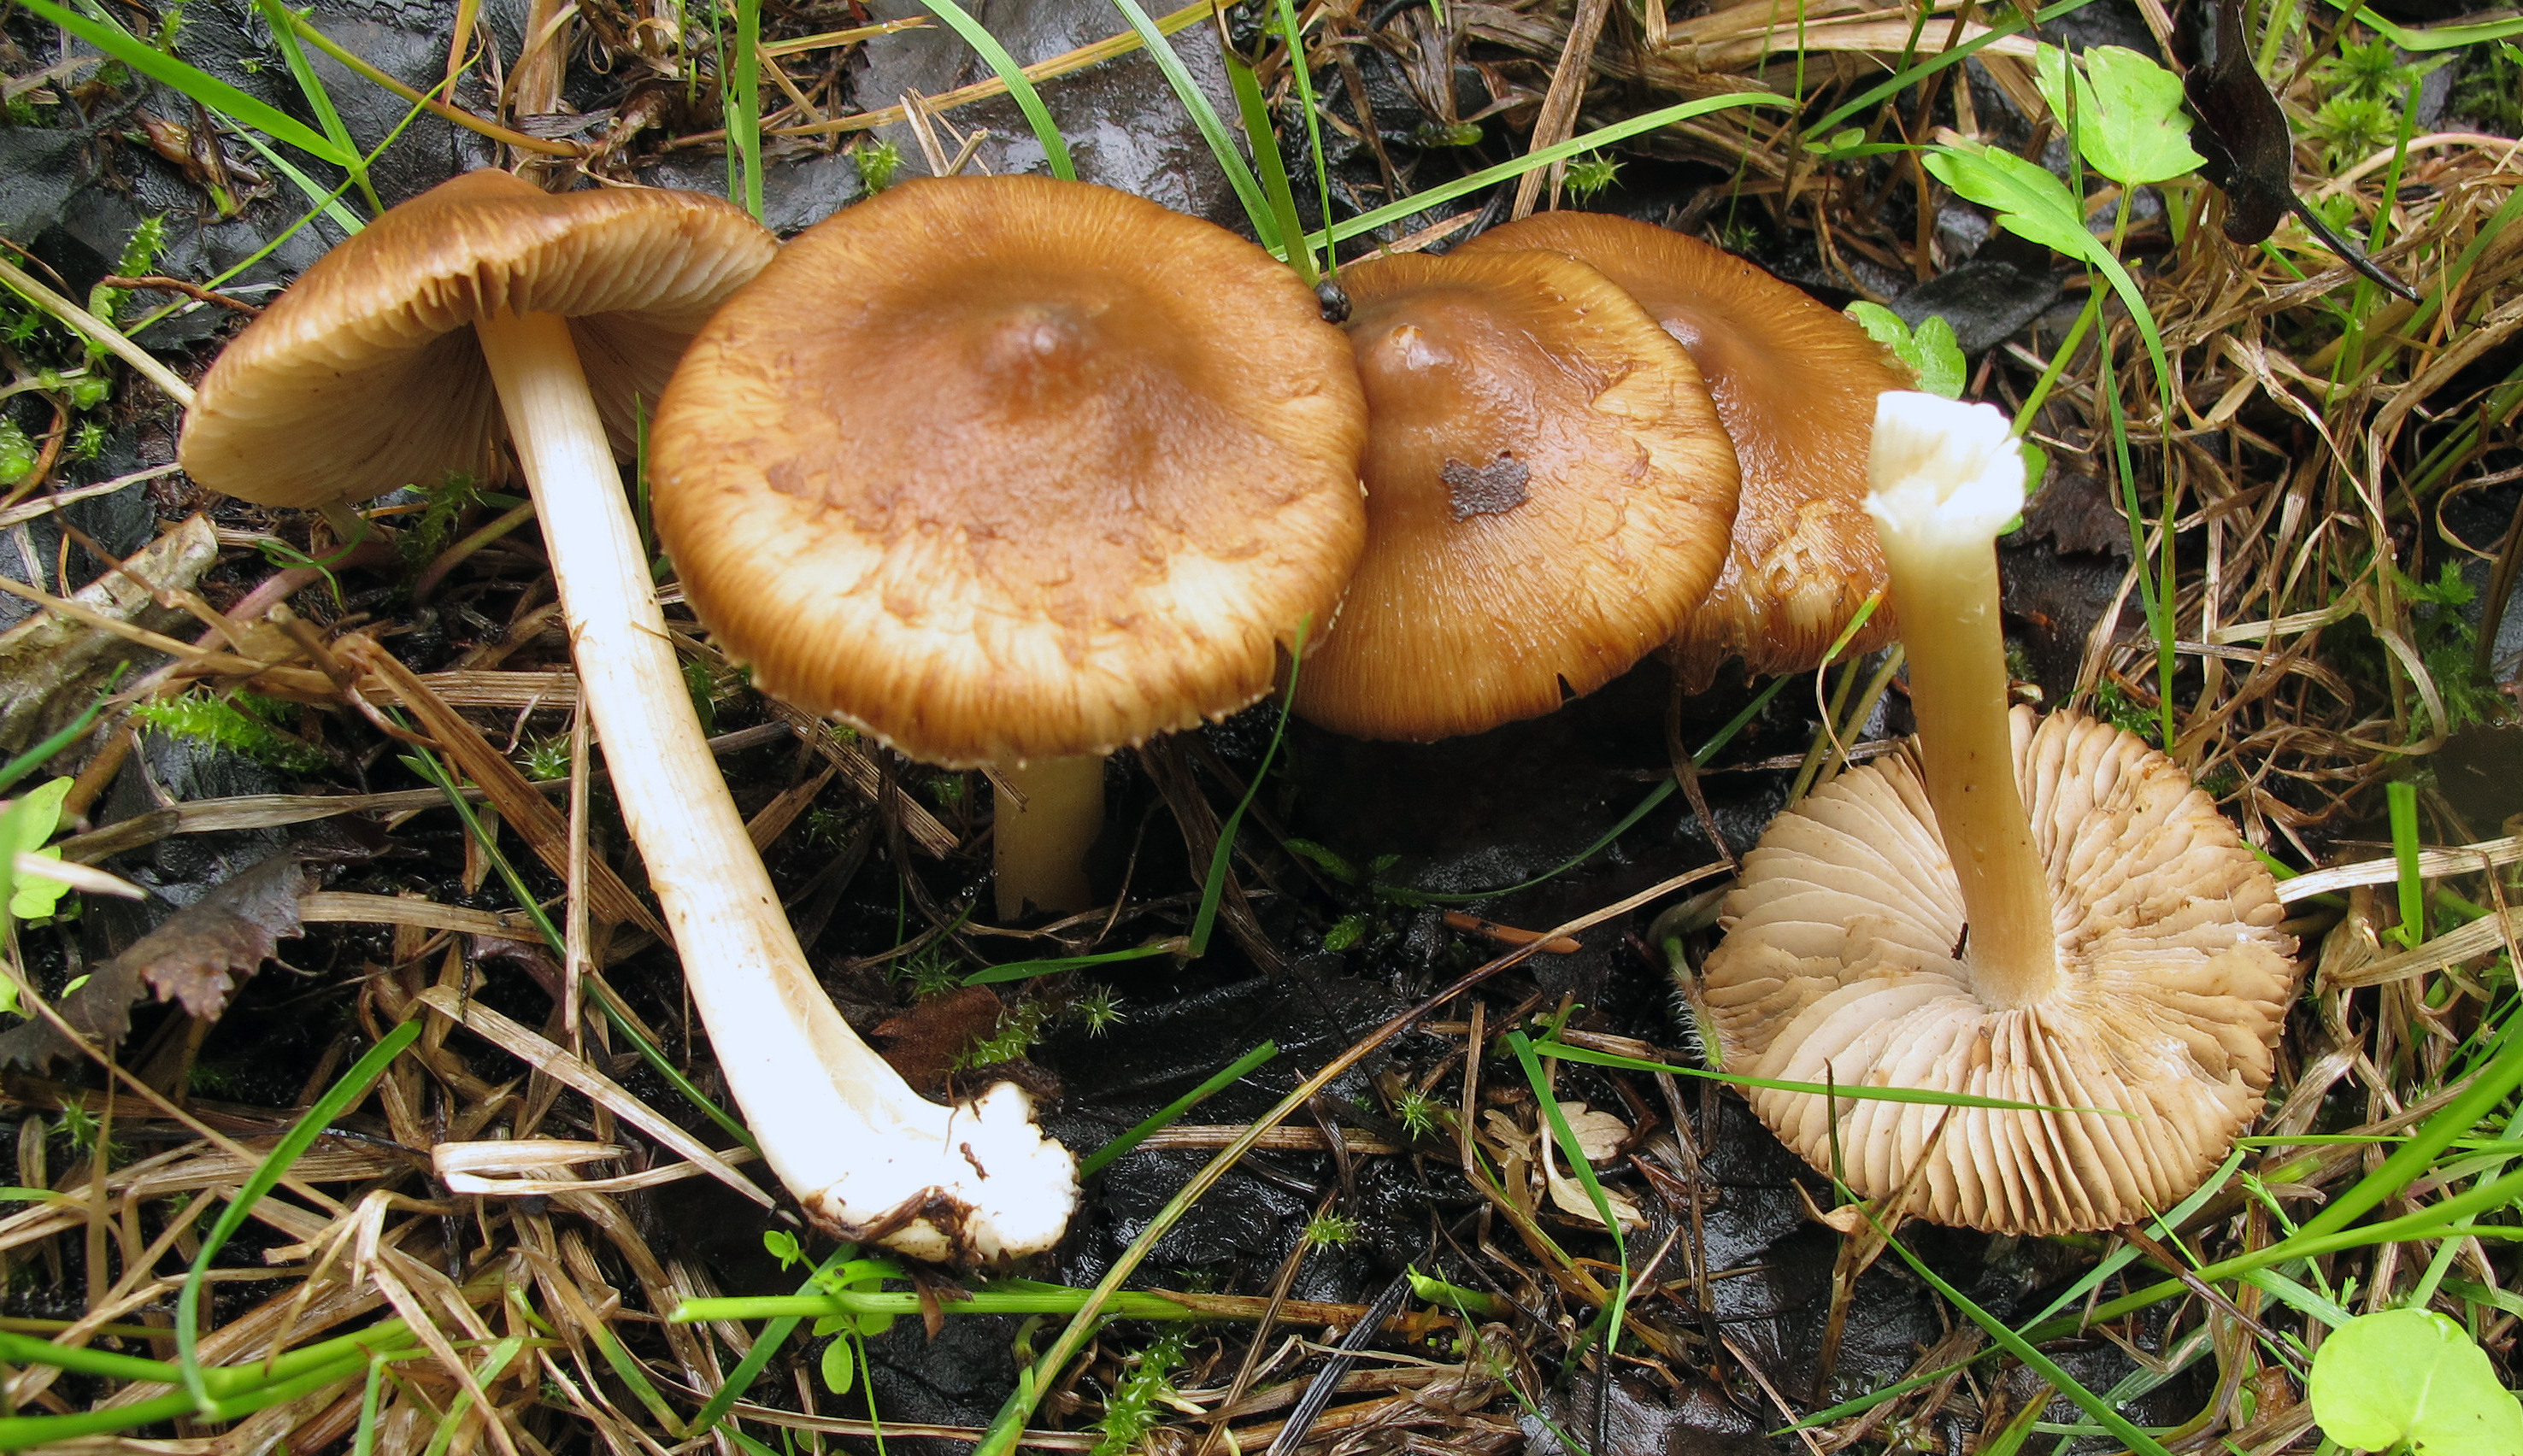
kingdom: Fungi
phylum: Basidiomycota
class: Agaricomycetes
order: Agaricales
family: Inocybaceae
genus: Inocybe
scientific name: Inocybe rivularis
